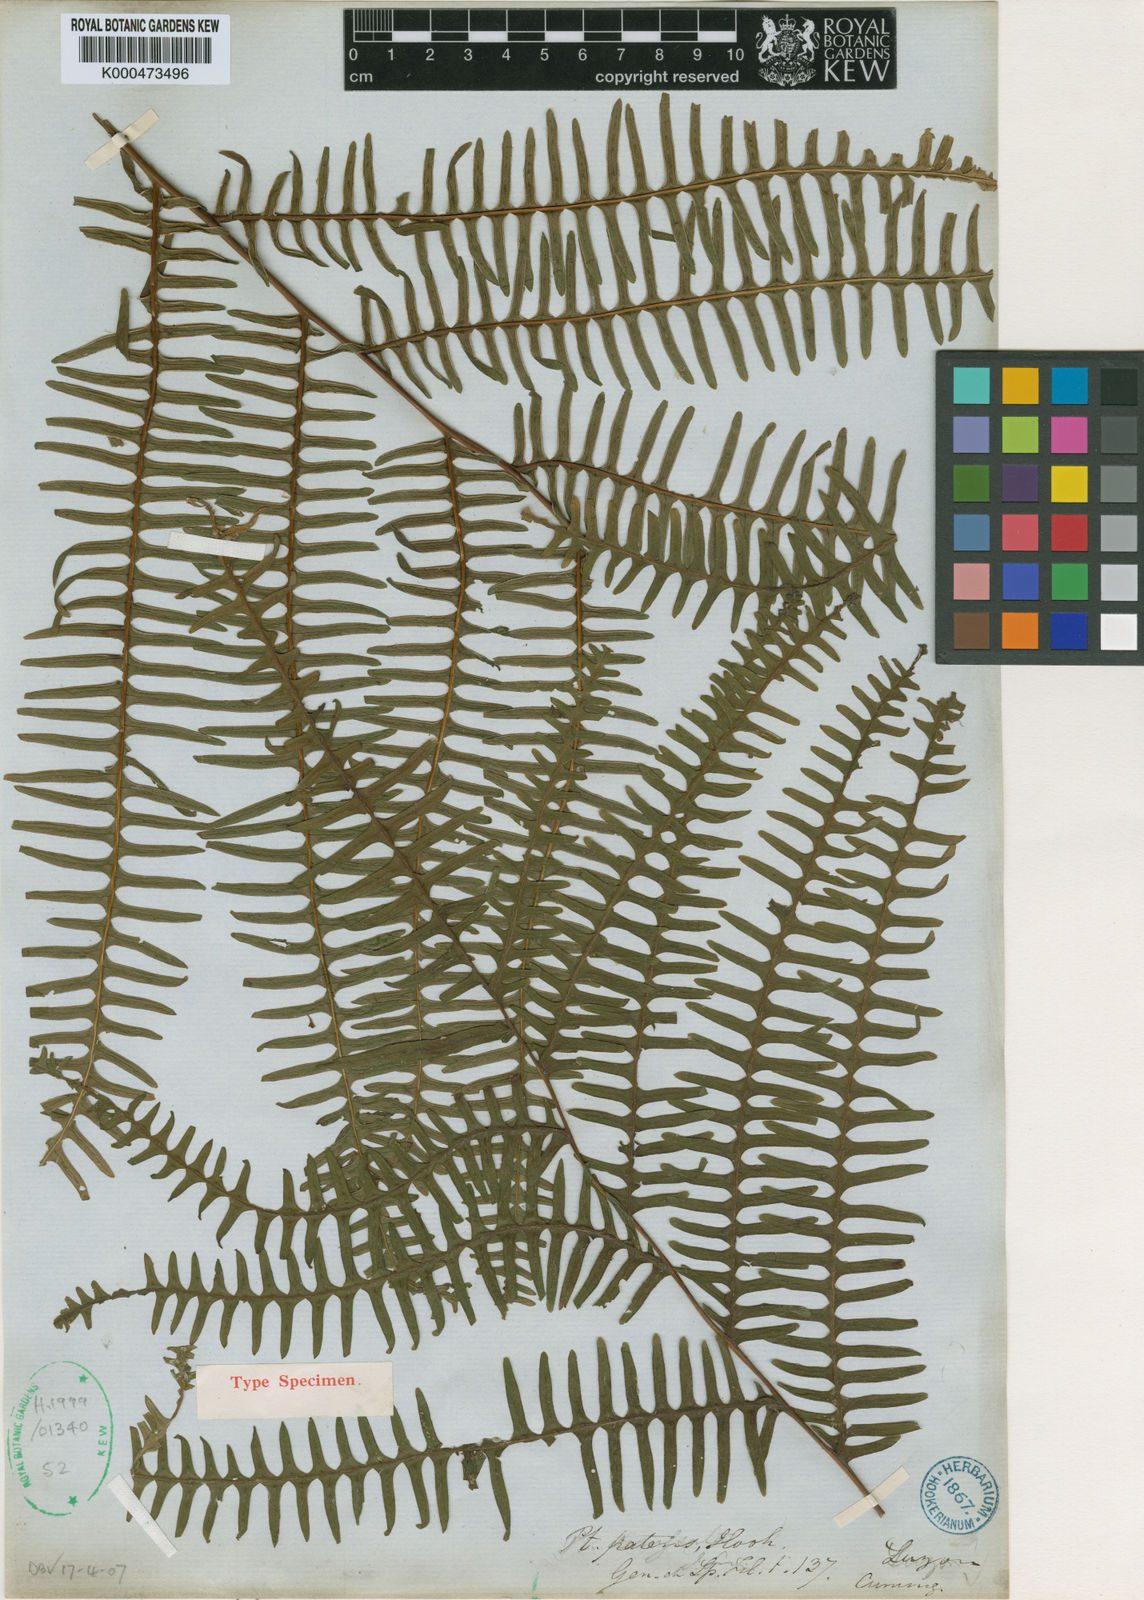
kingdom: Plantae
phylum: Tracheophyta
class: Polypodiopsida
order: Polypodiales
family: Pteridaceae
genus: Pteris
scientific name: Pteris mertensioides
